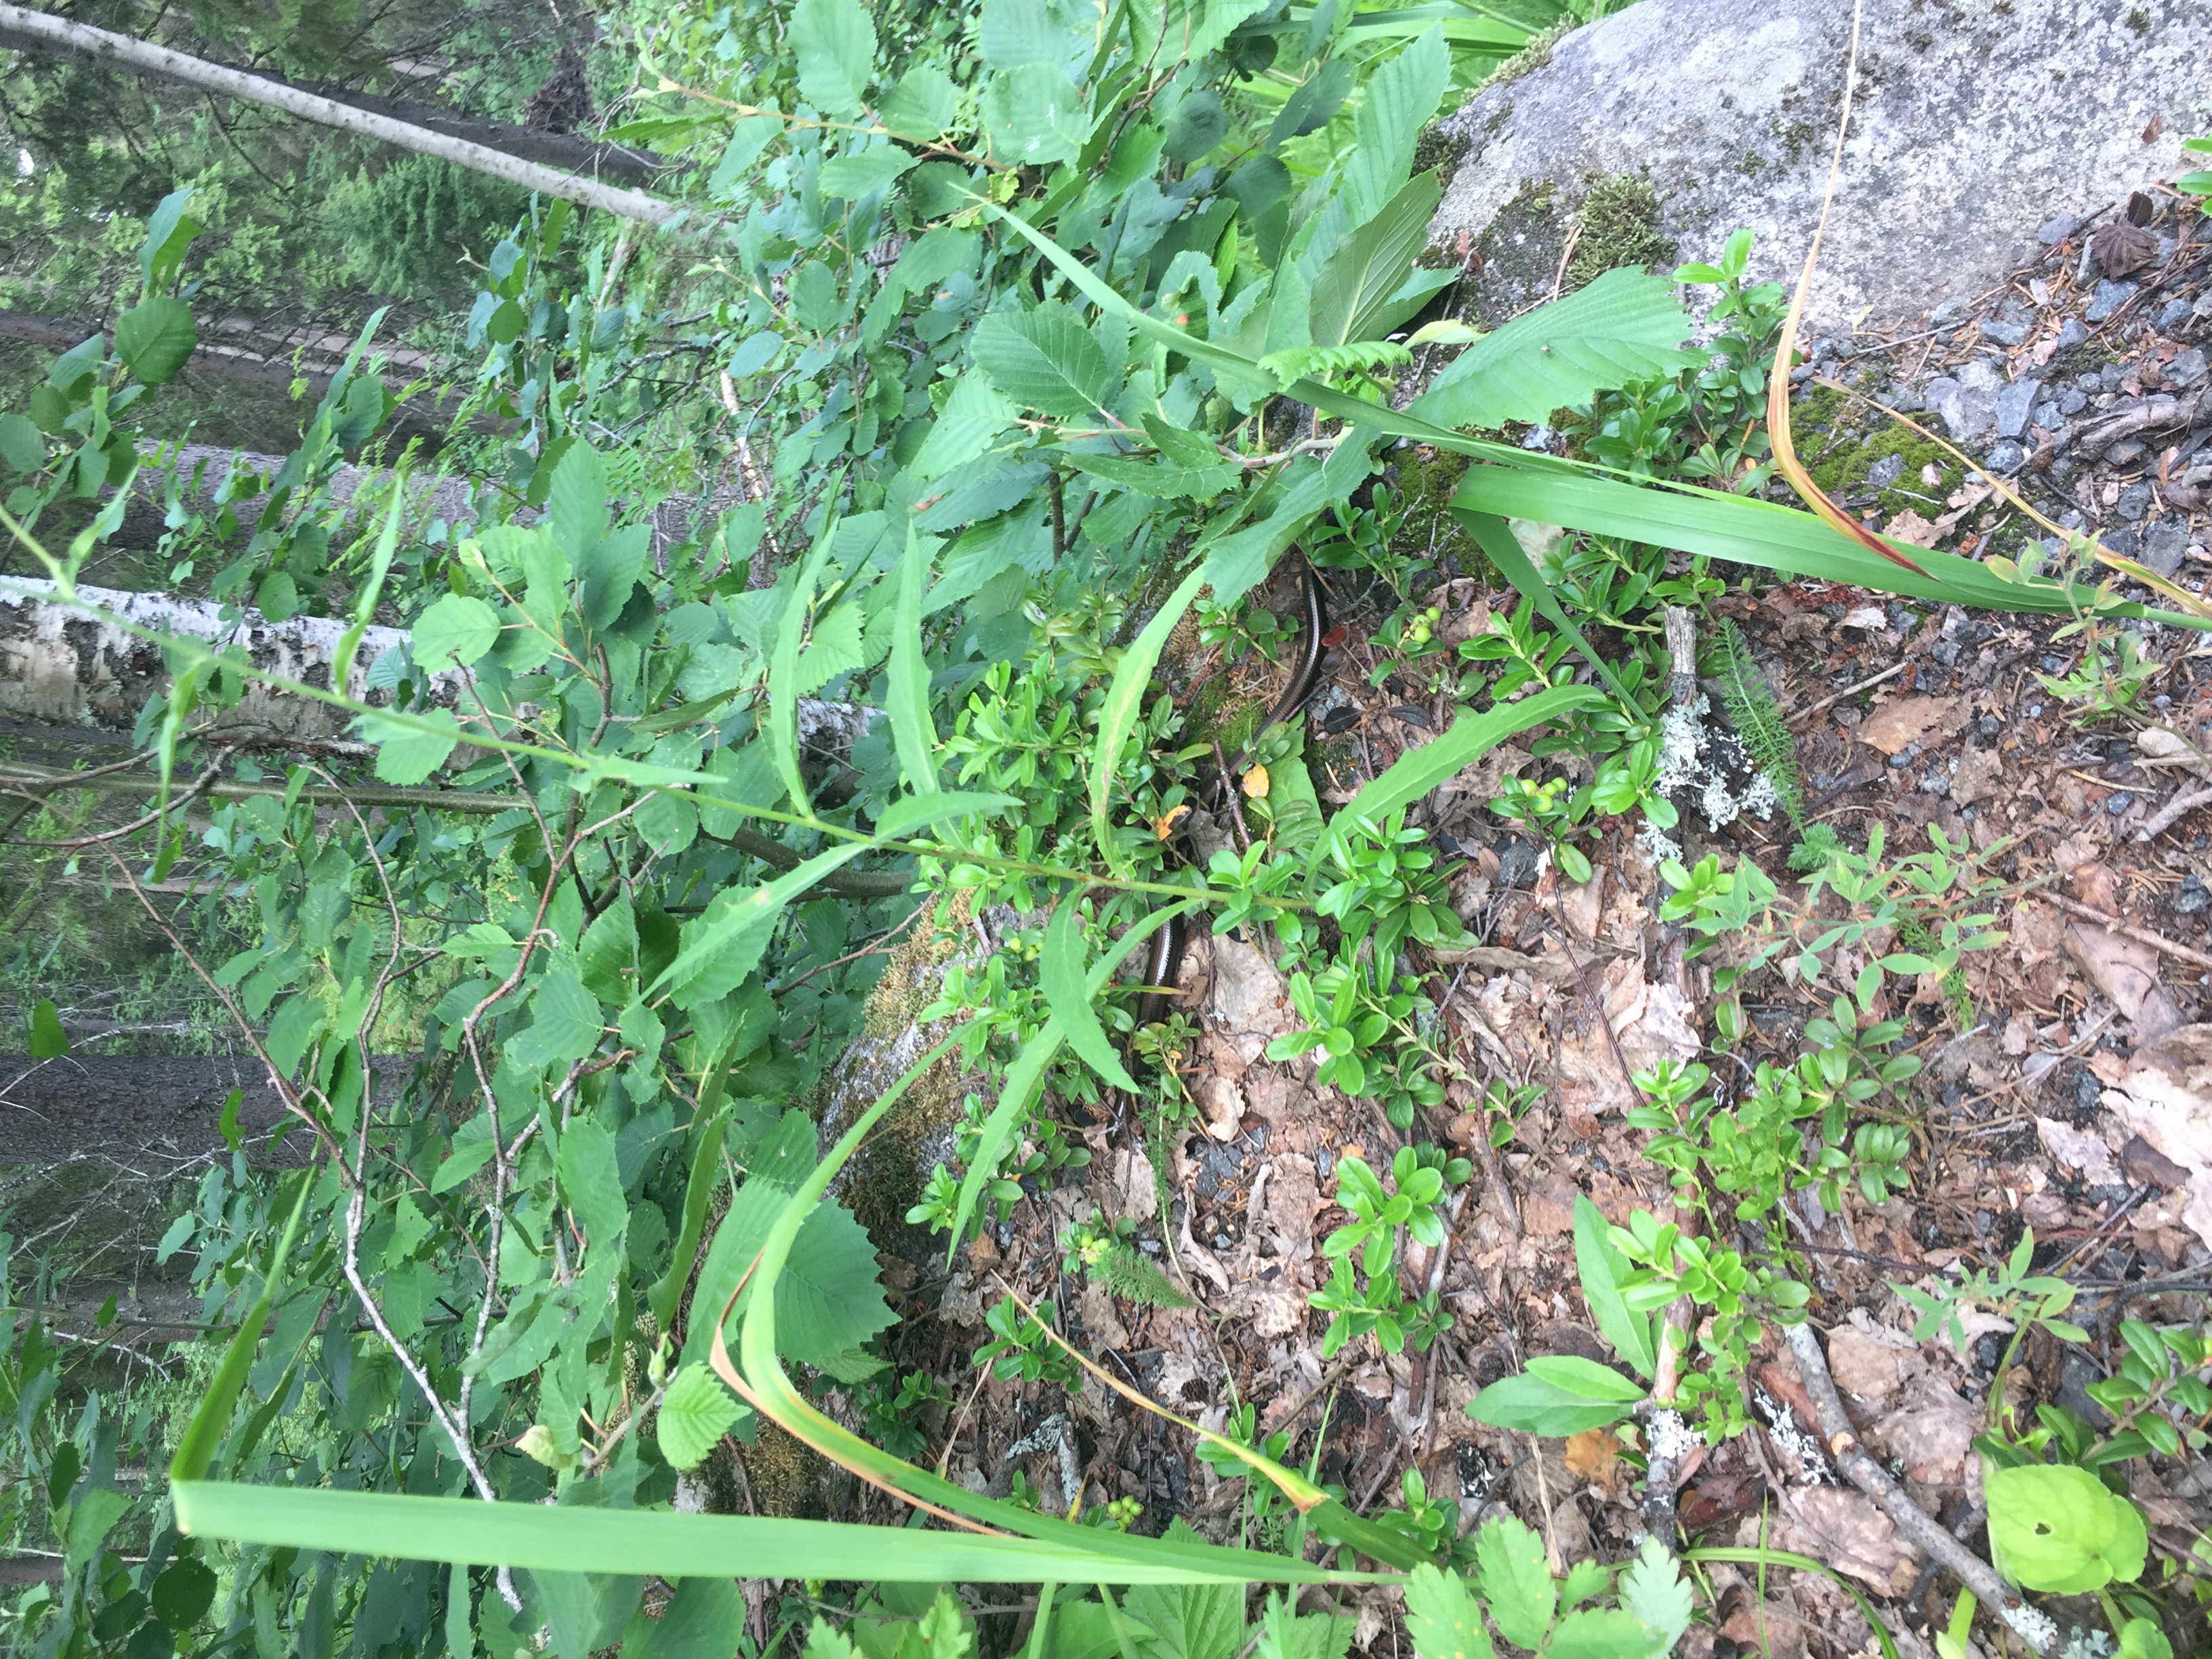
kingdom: Animalia
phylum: Chordata
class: Squamata
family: Anguidae
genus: Anguis
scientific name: Anguis colchica
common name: Slow worm
